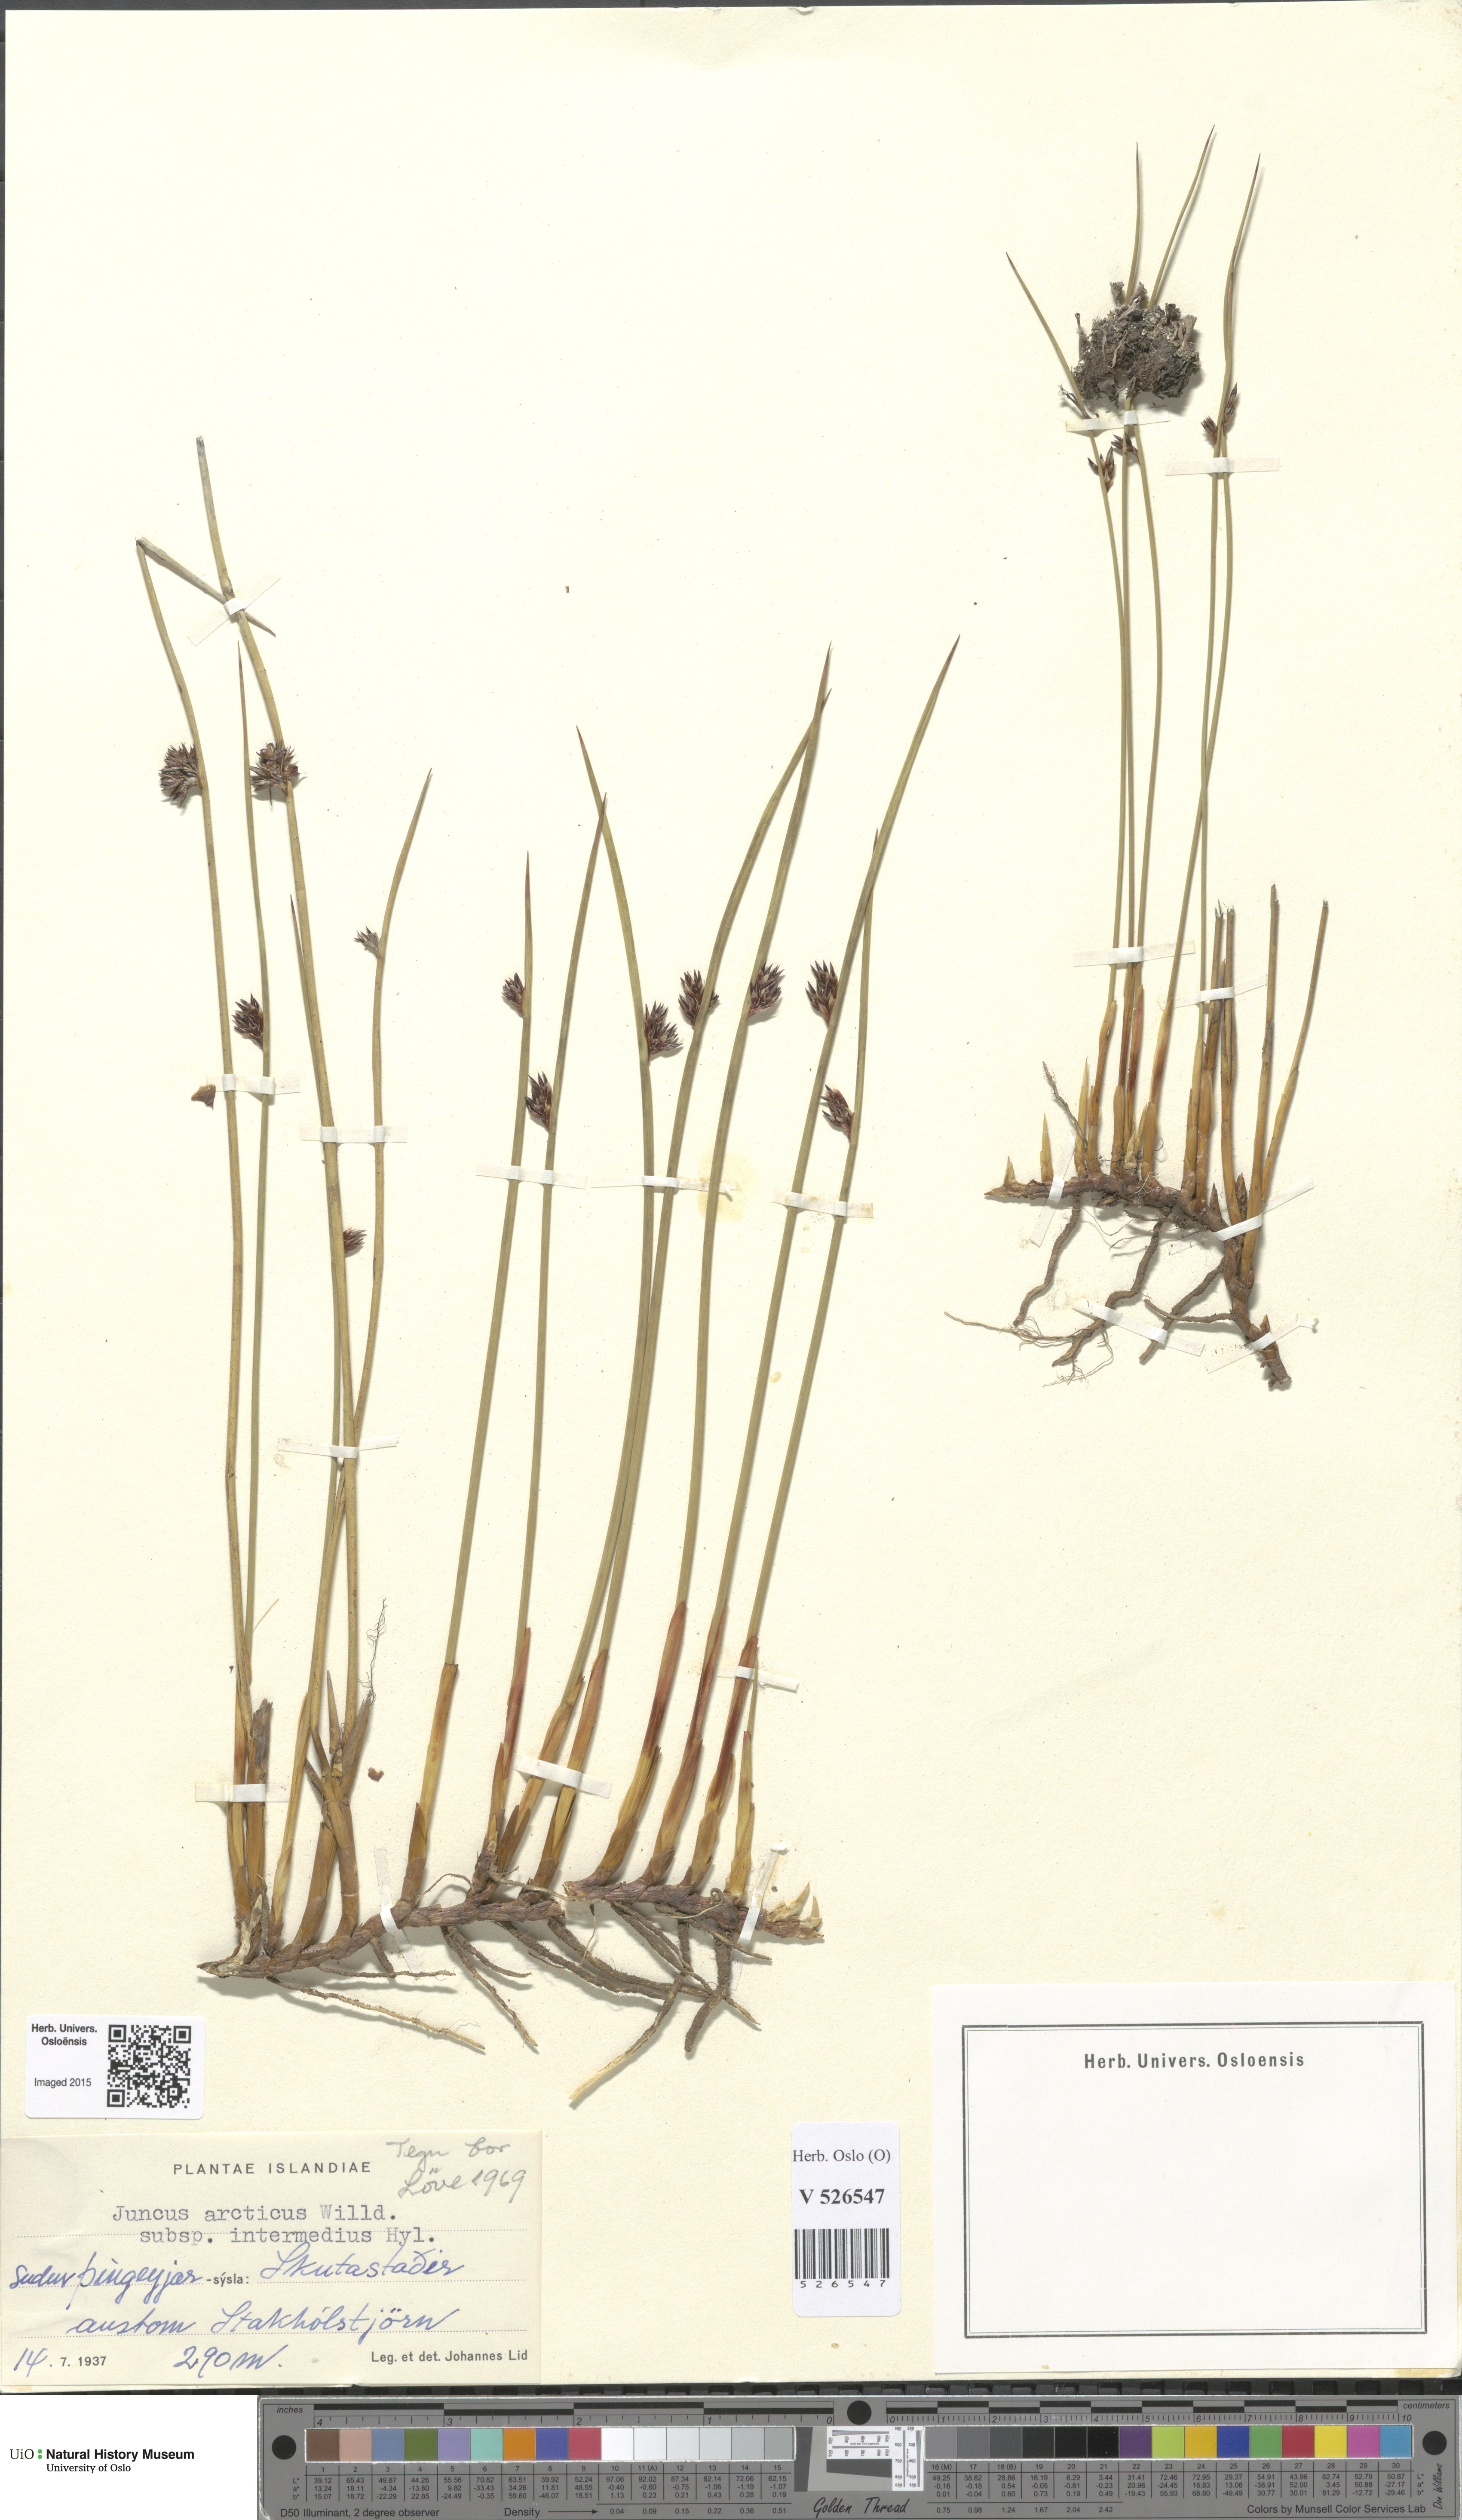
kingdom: Plantae
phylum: Tracheophyta
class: Liliopsida
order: Poales
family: Juncaceae
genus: Juncus
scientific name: Juncus arcticus
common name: Arctic rush
